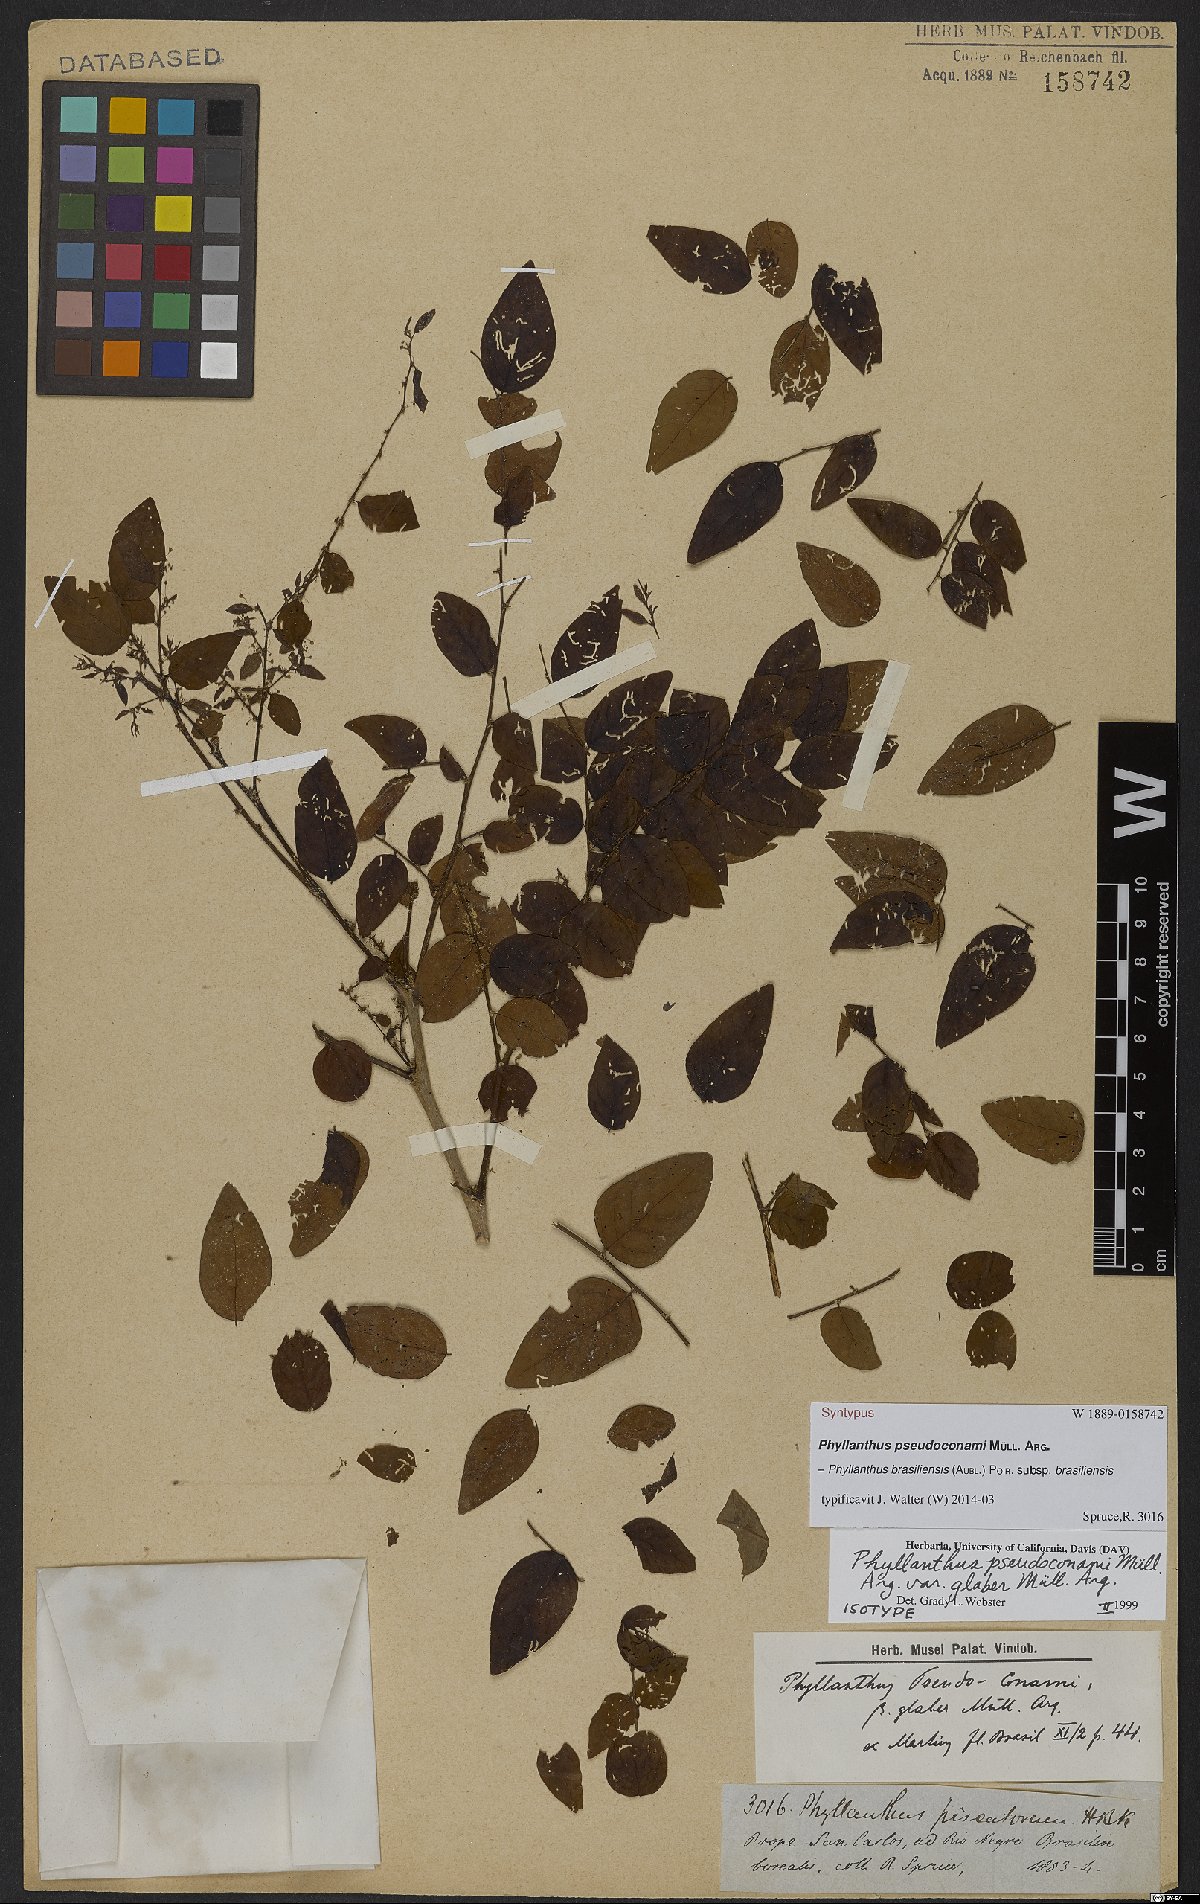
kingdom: Plantae
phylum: Tracheophyta
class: Magnoliopsida
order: Malpighiales
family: Phyllanthaceae
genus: Phyllanthus
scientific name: Phyllanthus brasiliensis
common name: Fish-poison
